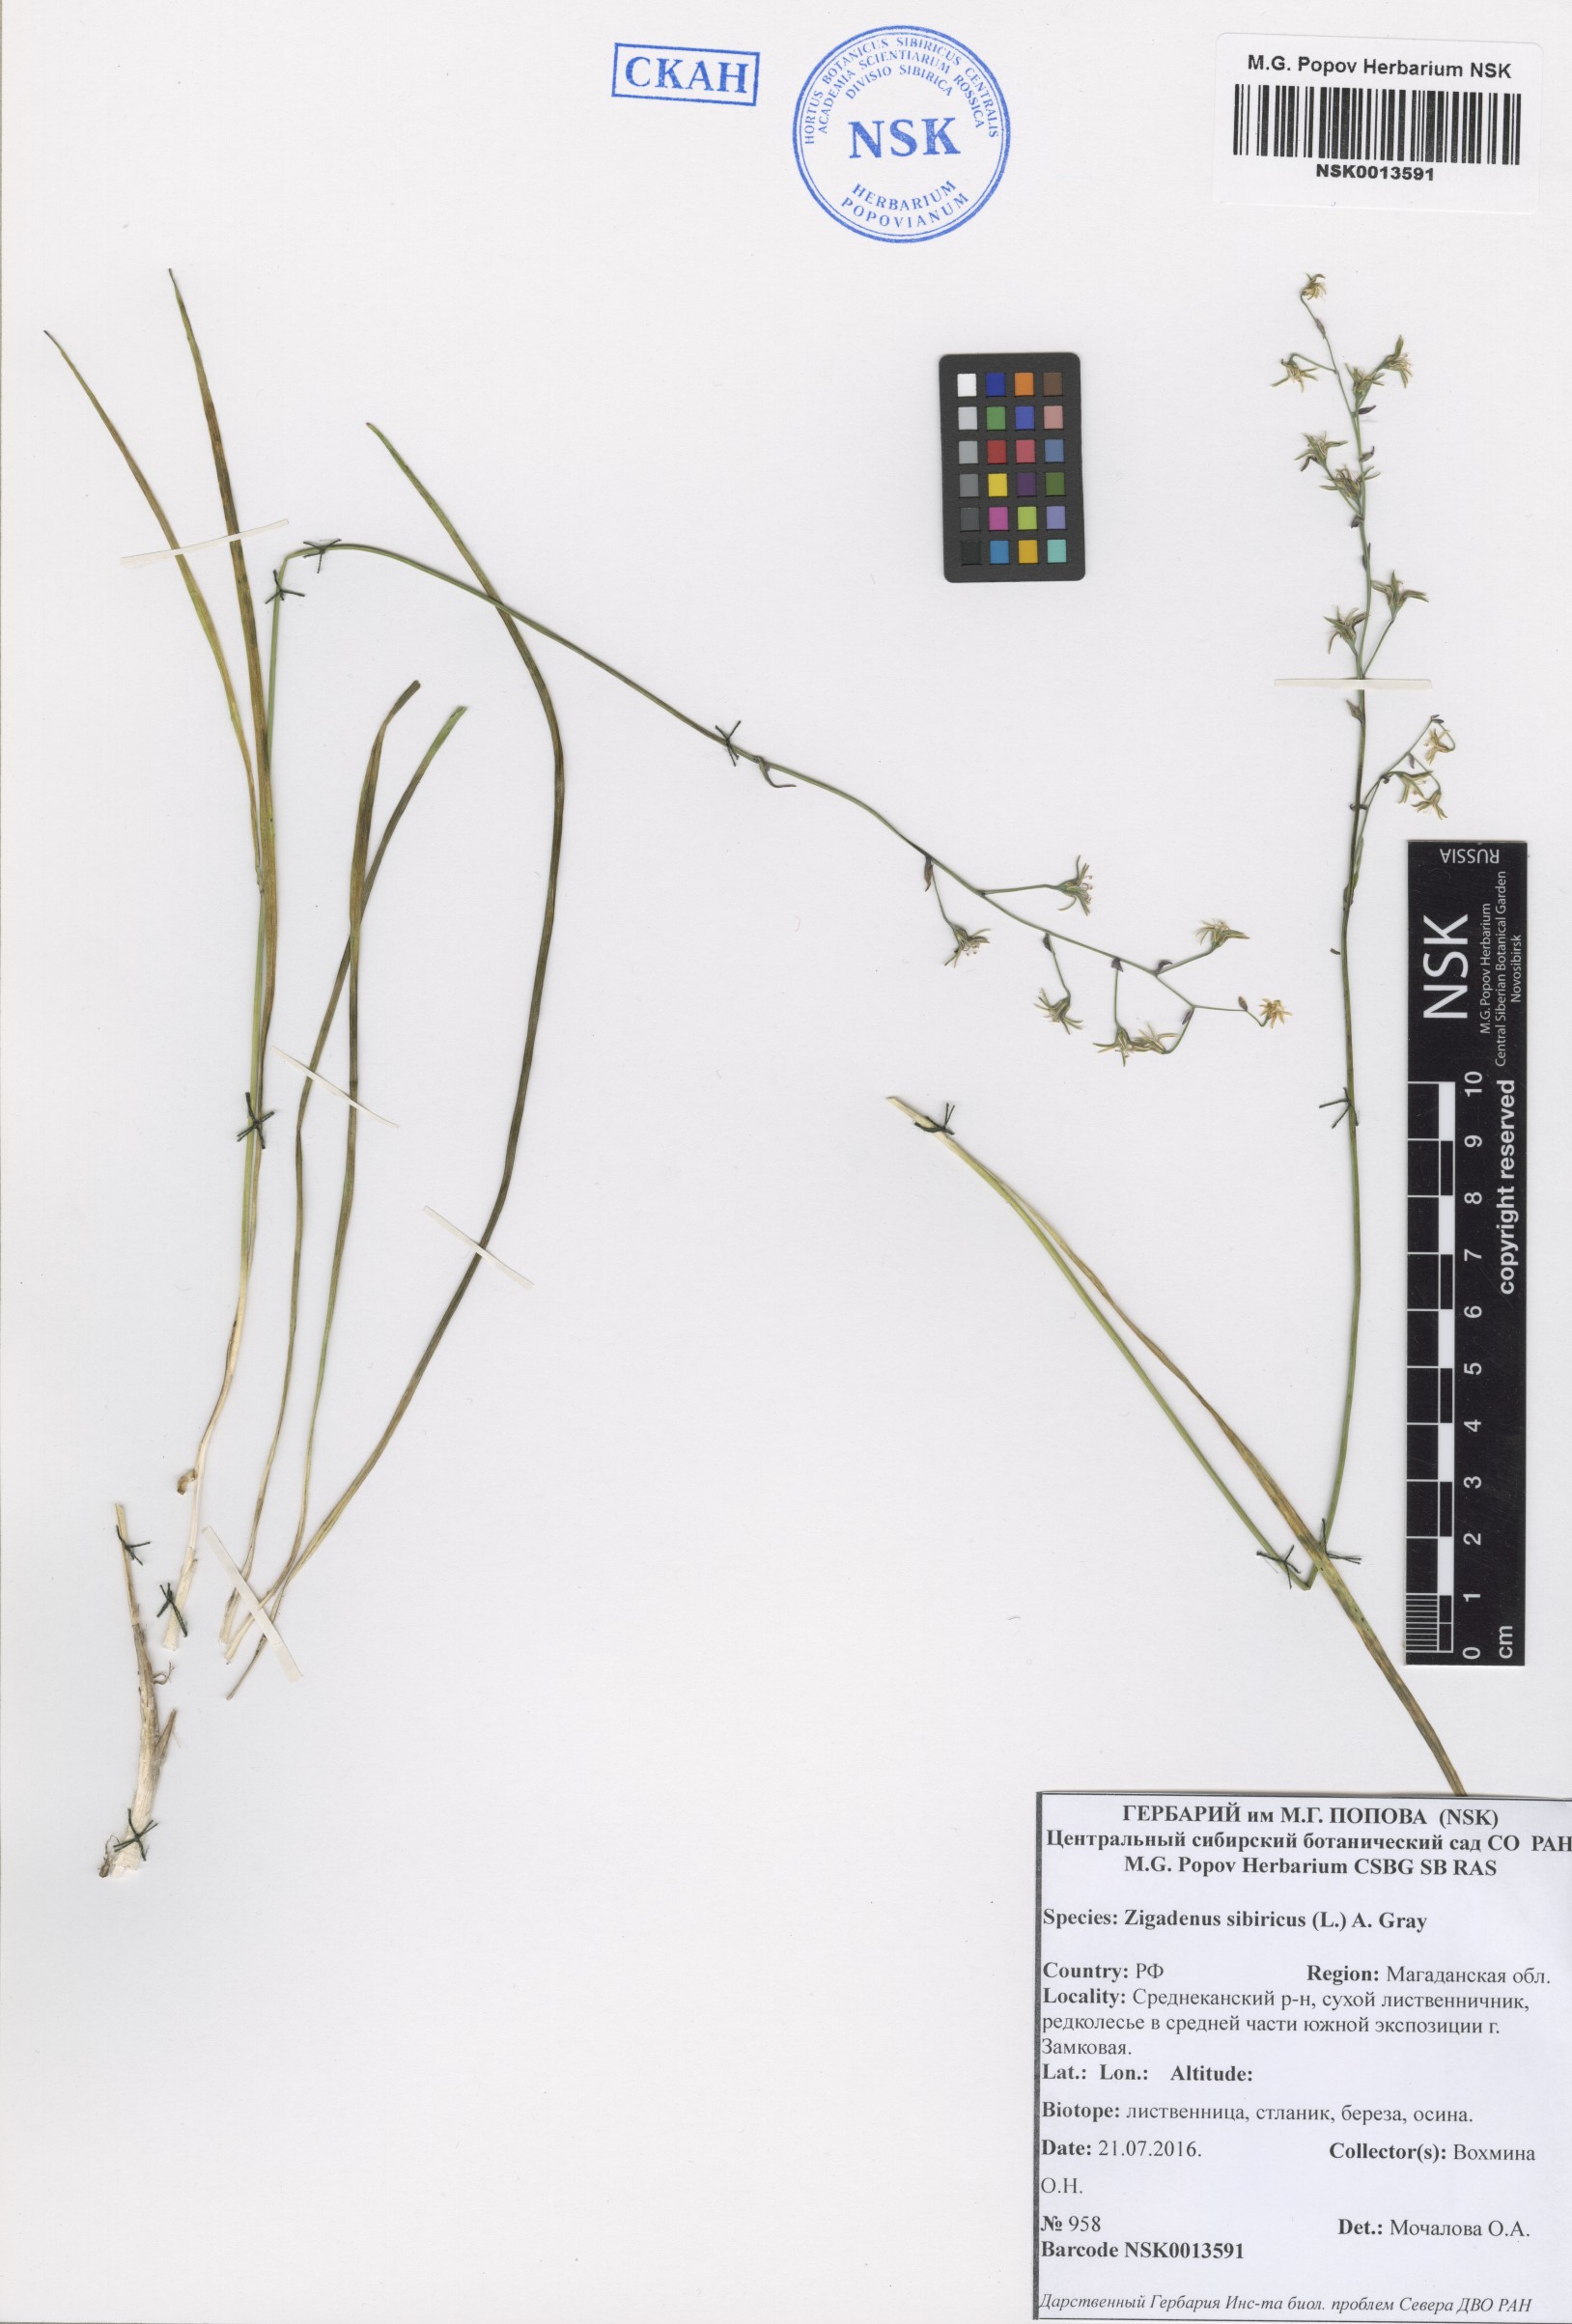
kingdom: Plantae
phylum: Tracheophyta
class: Liliopsida
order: Liliales
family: Melanthiaceae
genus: Anticlea
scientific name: Anticlea sibirica
